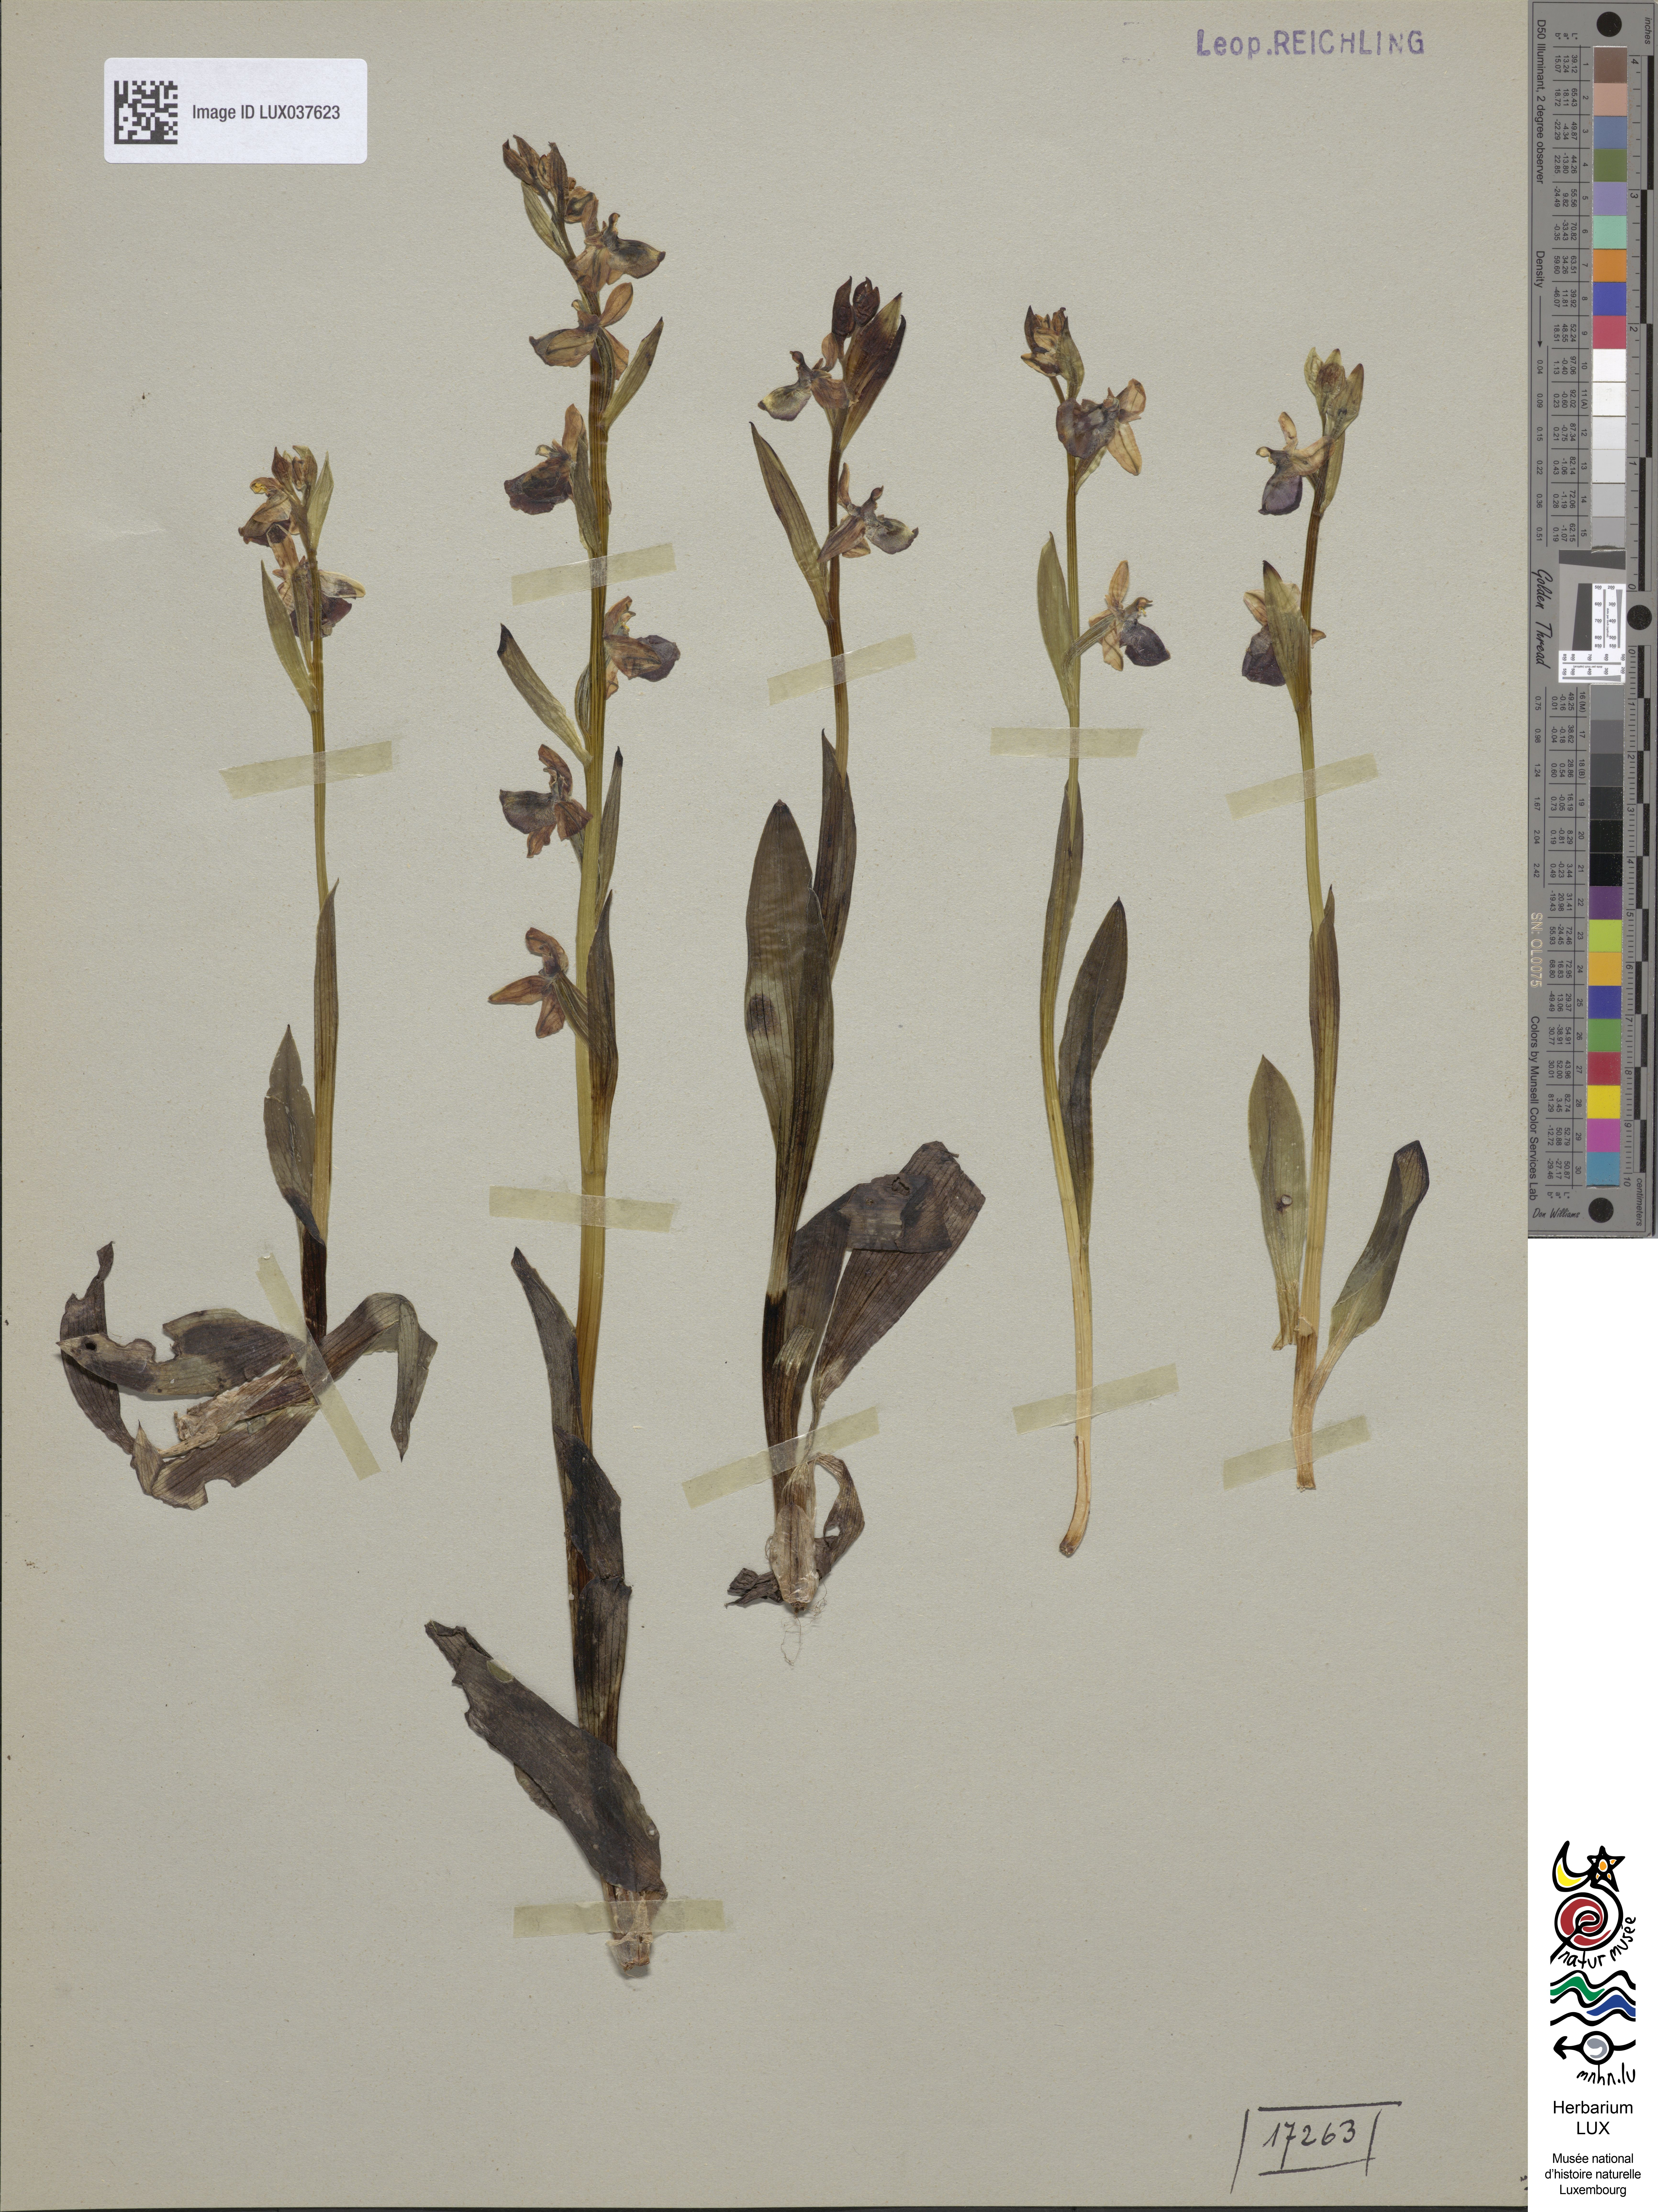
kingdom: Plantae
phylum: Tracheophyta
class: Liliopsida
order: Asparagales
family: Orchidaceae
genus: Ophrys
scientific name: Ophrys holosericea
